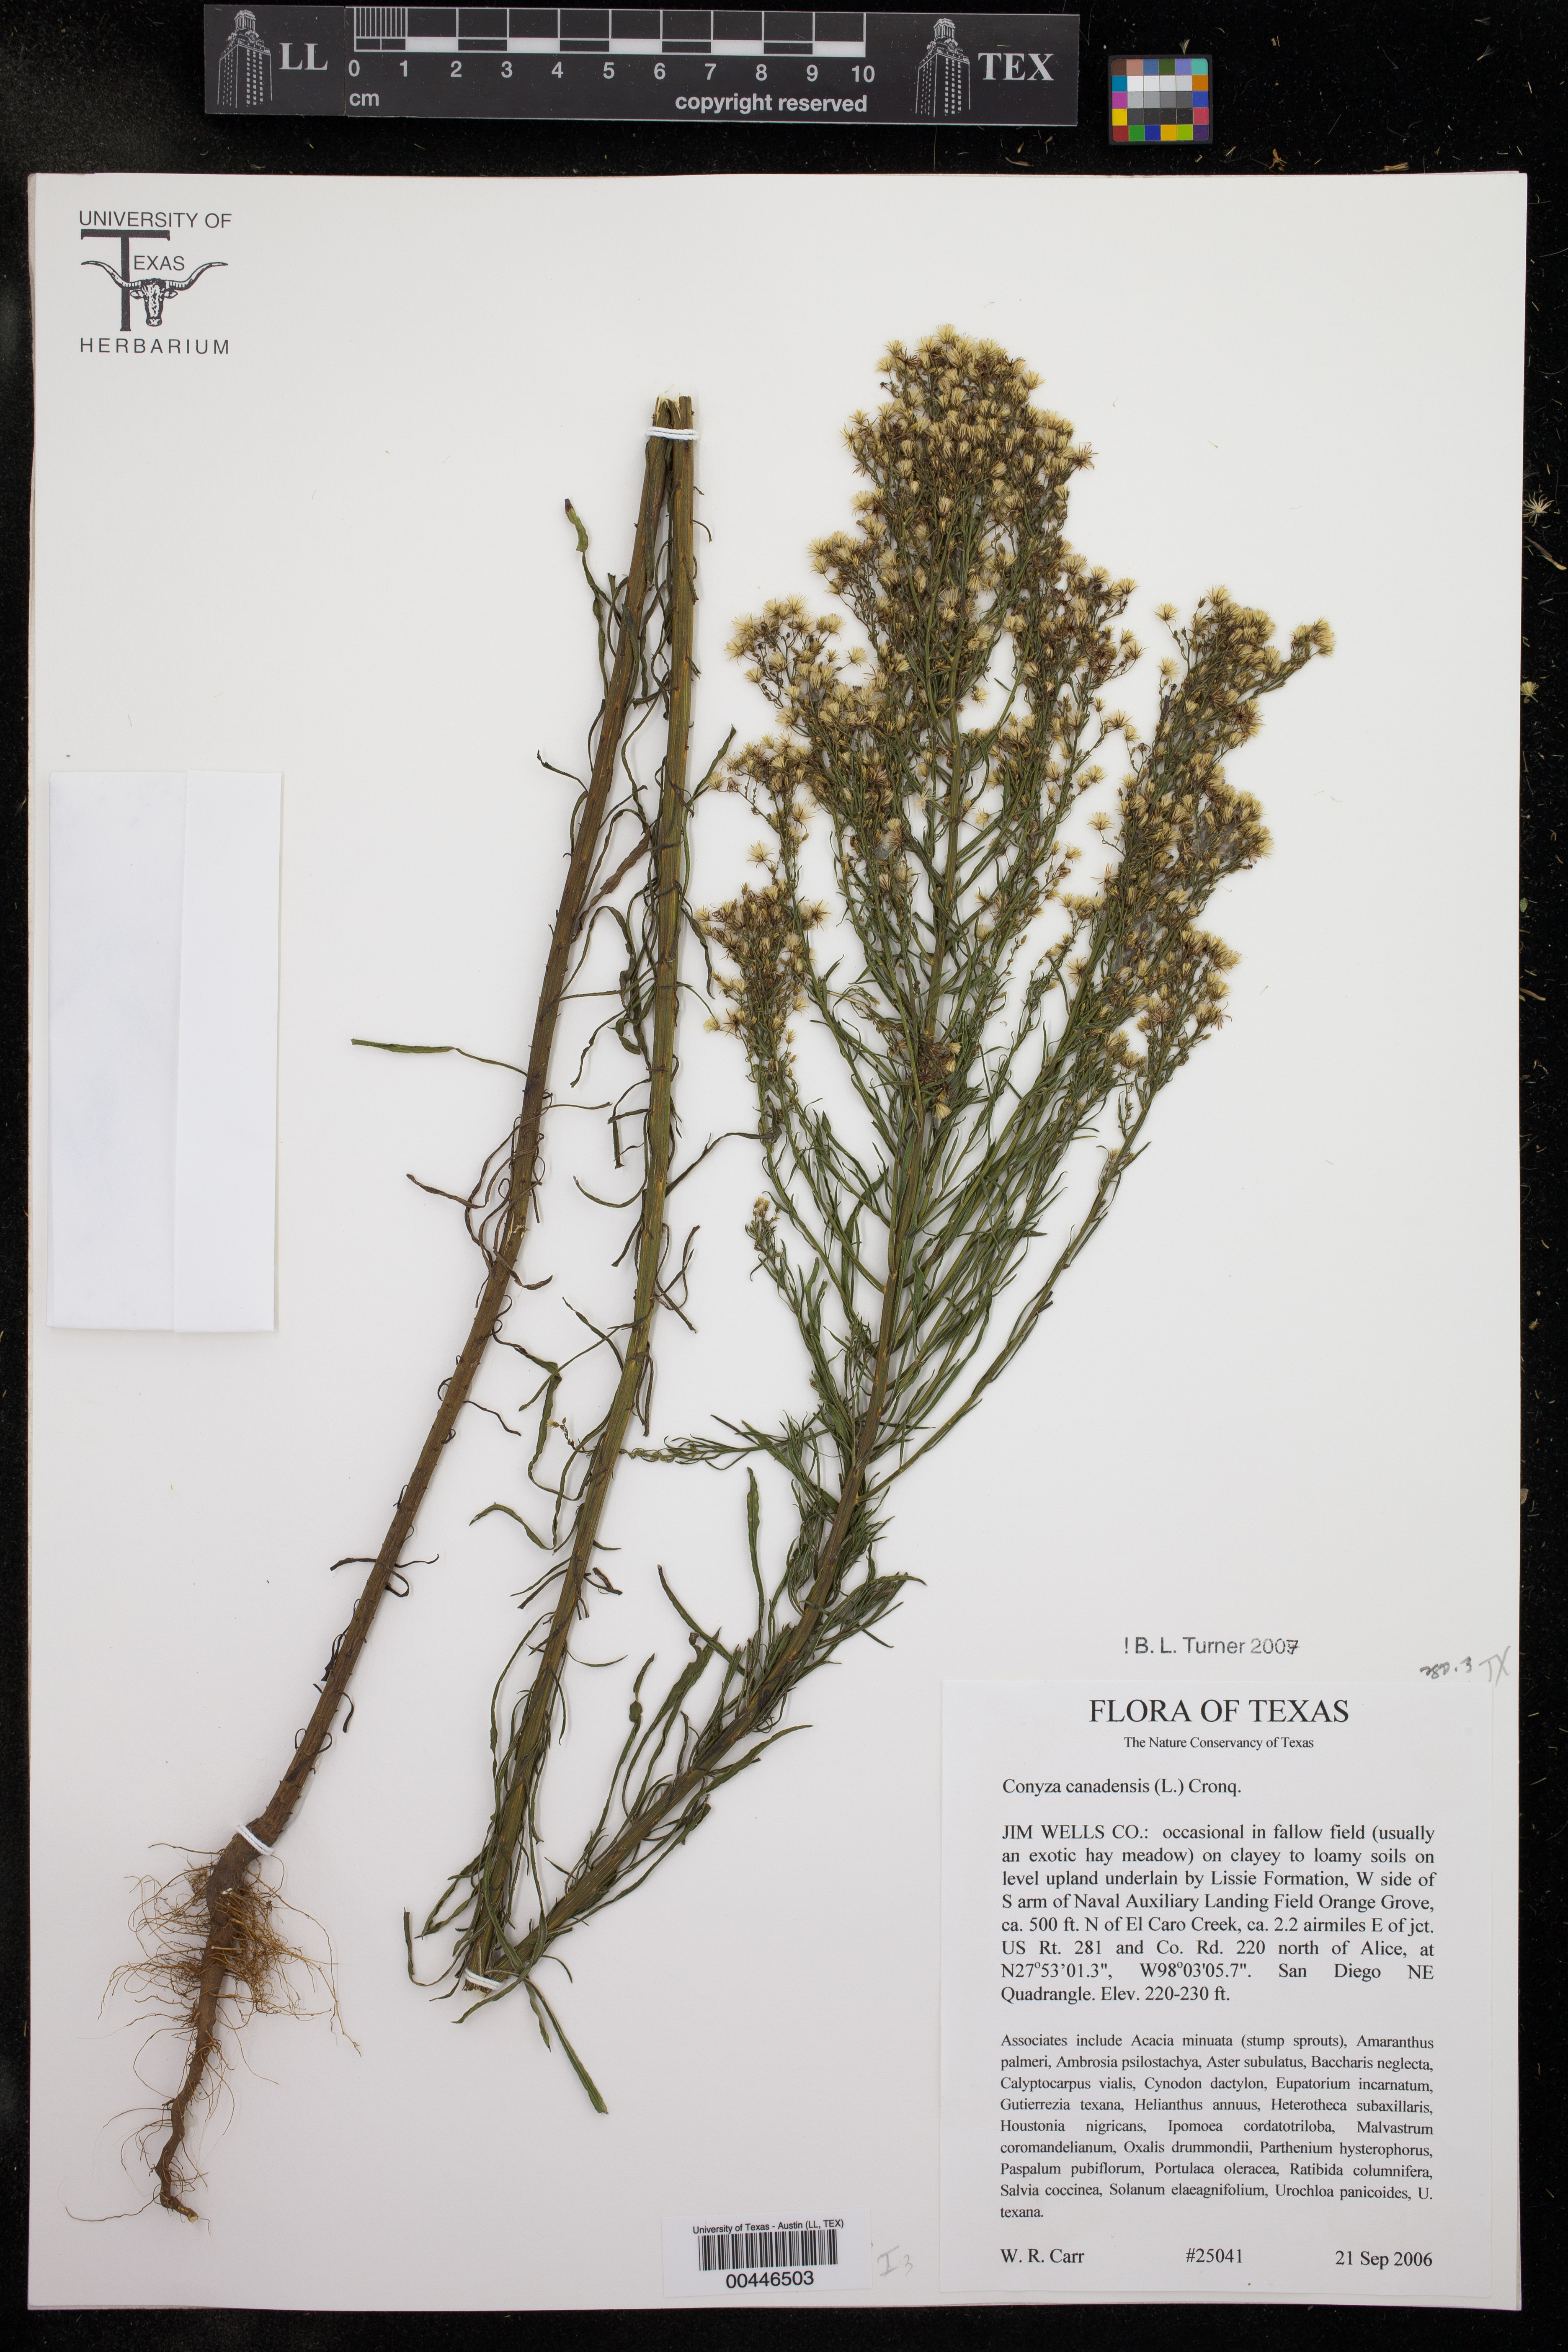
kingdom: Plantae
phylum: Tracheophyta
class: Magnoliopsida
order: Asterales
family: Asteraceae
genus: Erigeron
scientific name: Erigeron canadensis
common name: Canadian fleabane
